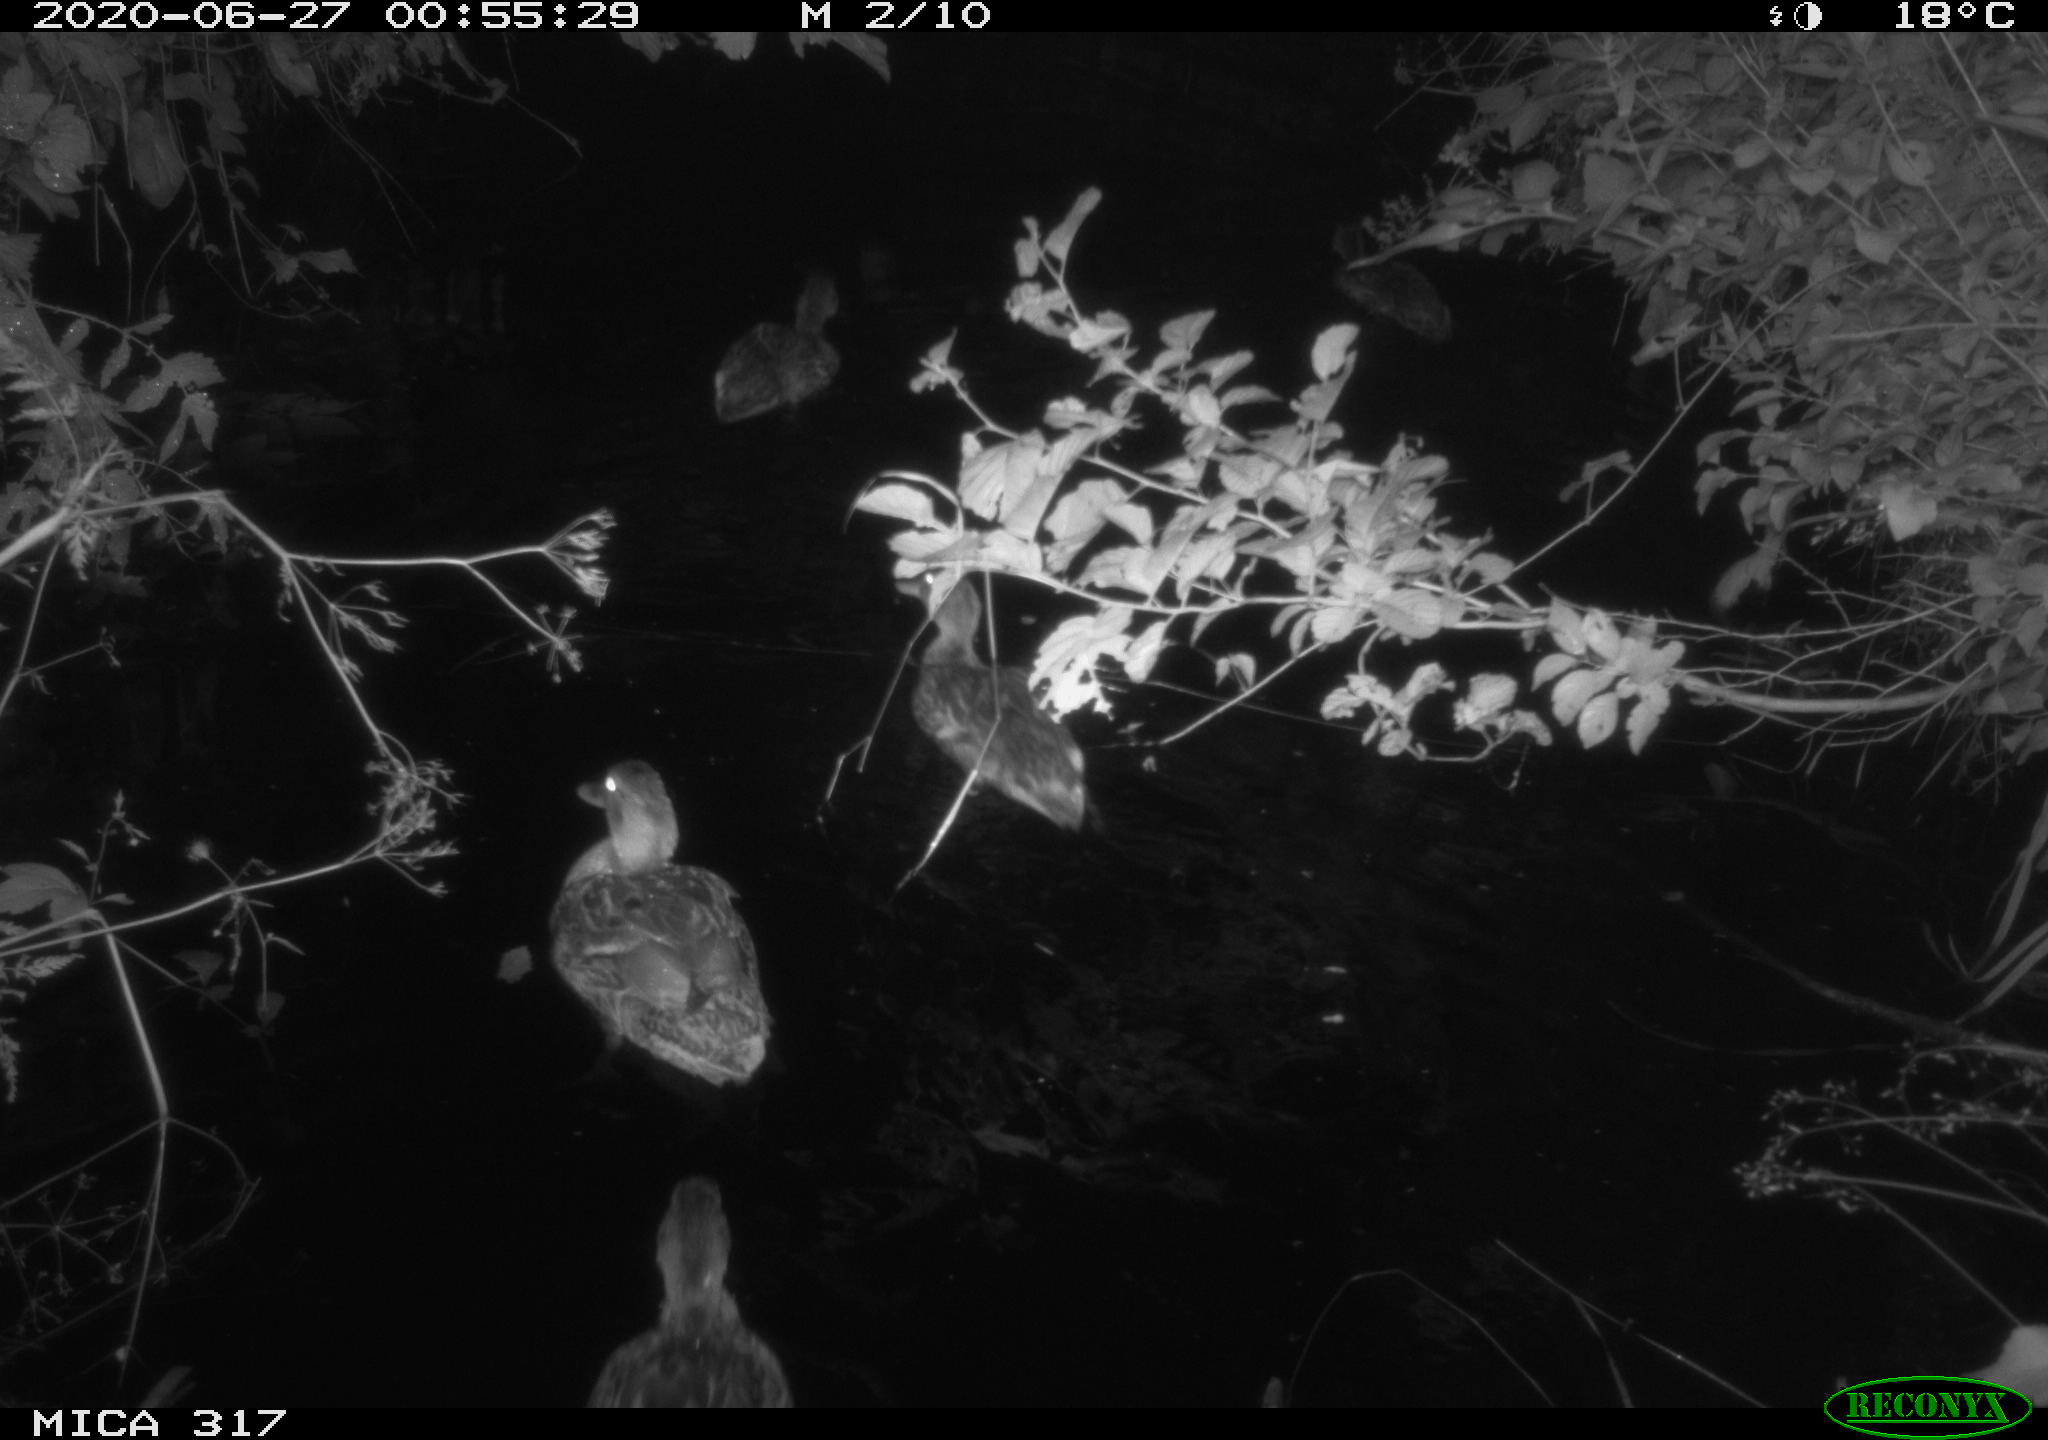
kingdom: Animalia
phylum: Chordata
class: Aves
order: Anseriformes
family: Anatidae
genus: Anas
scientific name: Anas platyrhynchos
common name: Mallard
